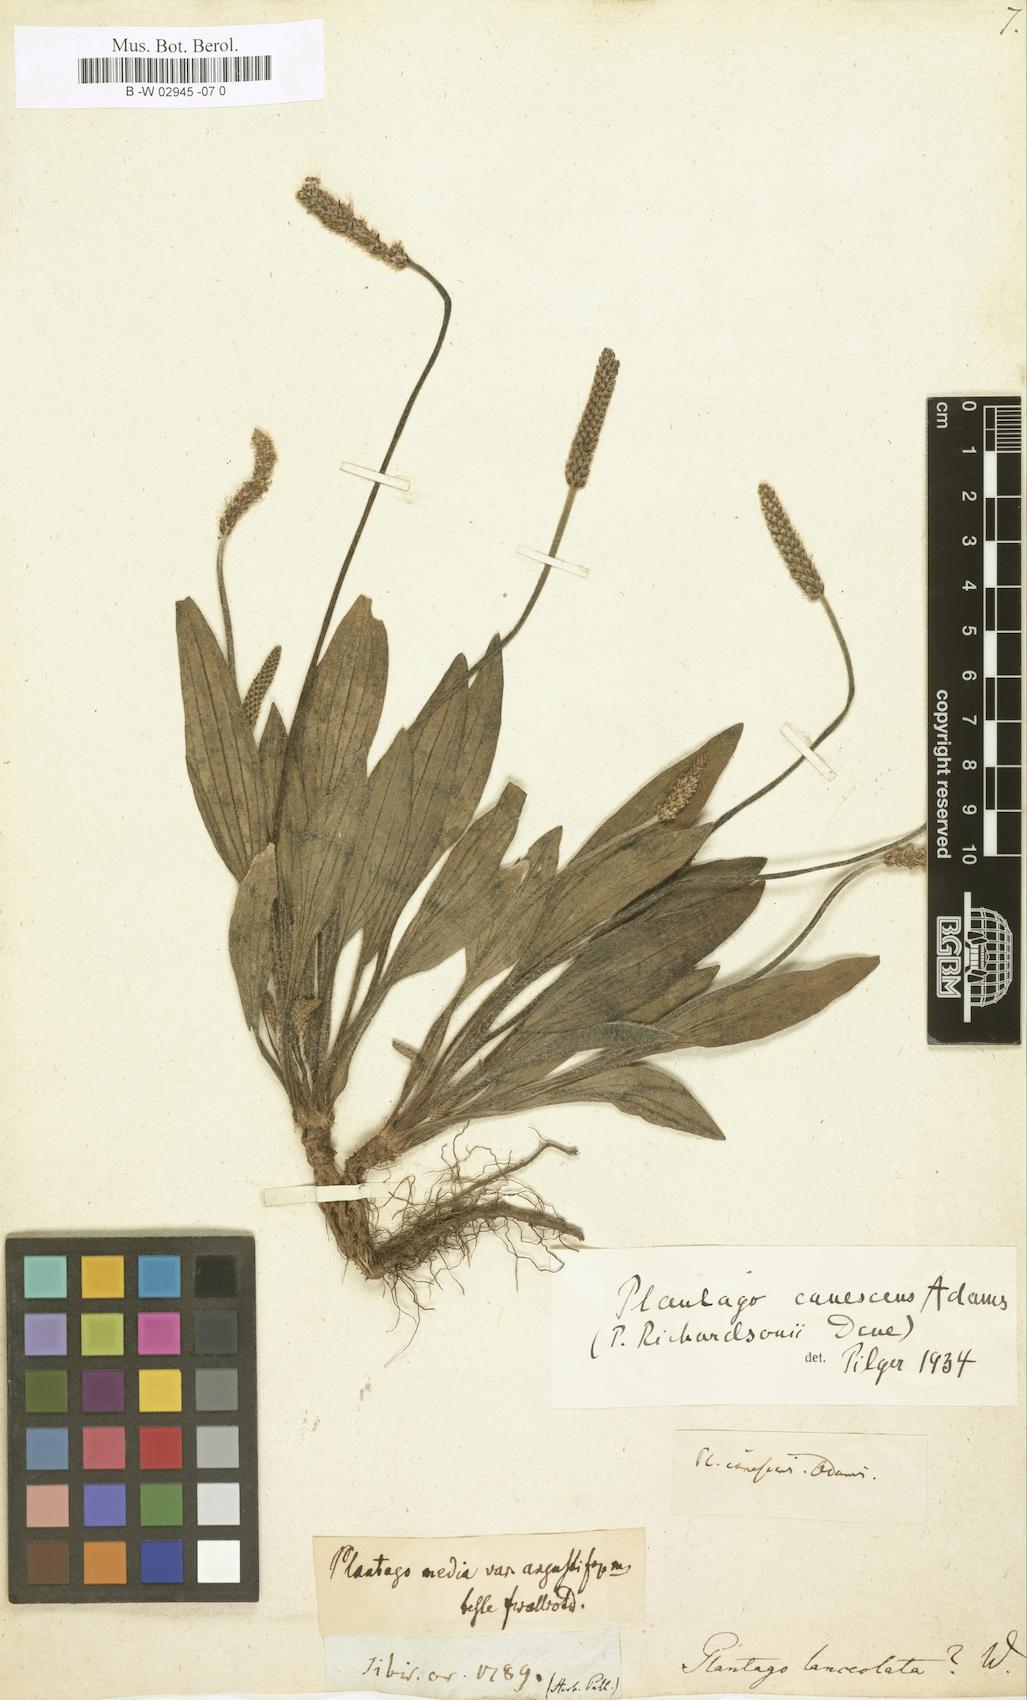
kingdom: Plantae
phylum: Tracheophyta
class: Magnoliopsida
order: Lamiales
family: Plantaginaceae
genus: Plantago
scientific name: Plantago lanceolata
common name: Ribwort plantain
